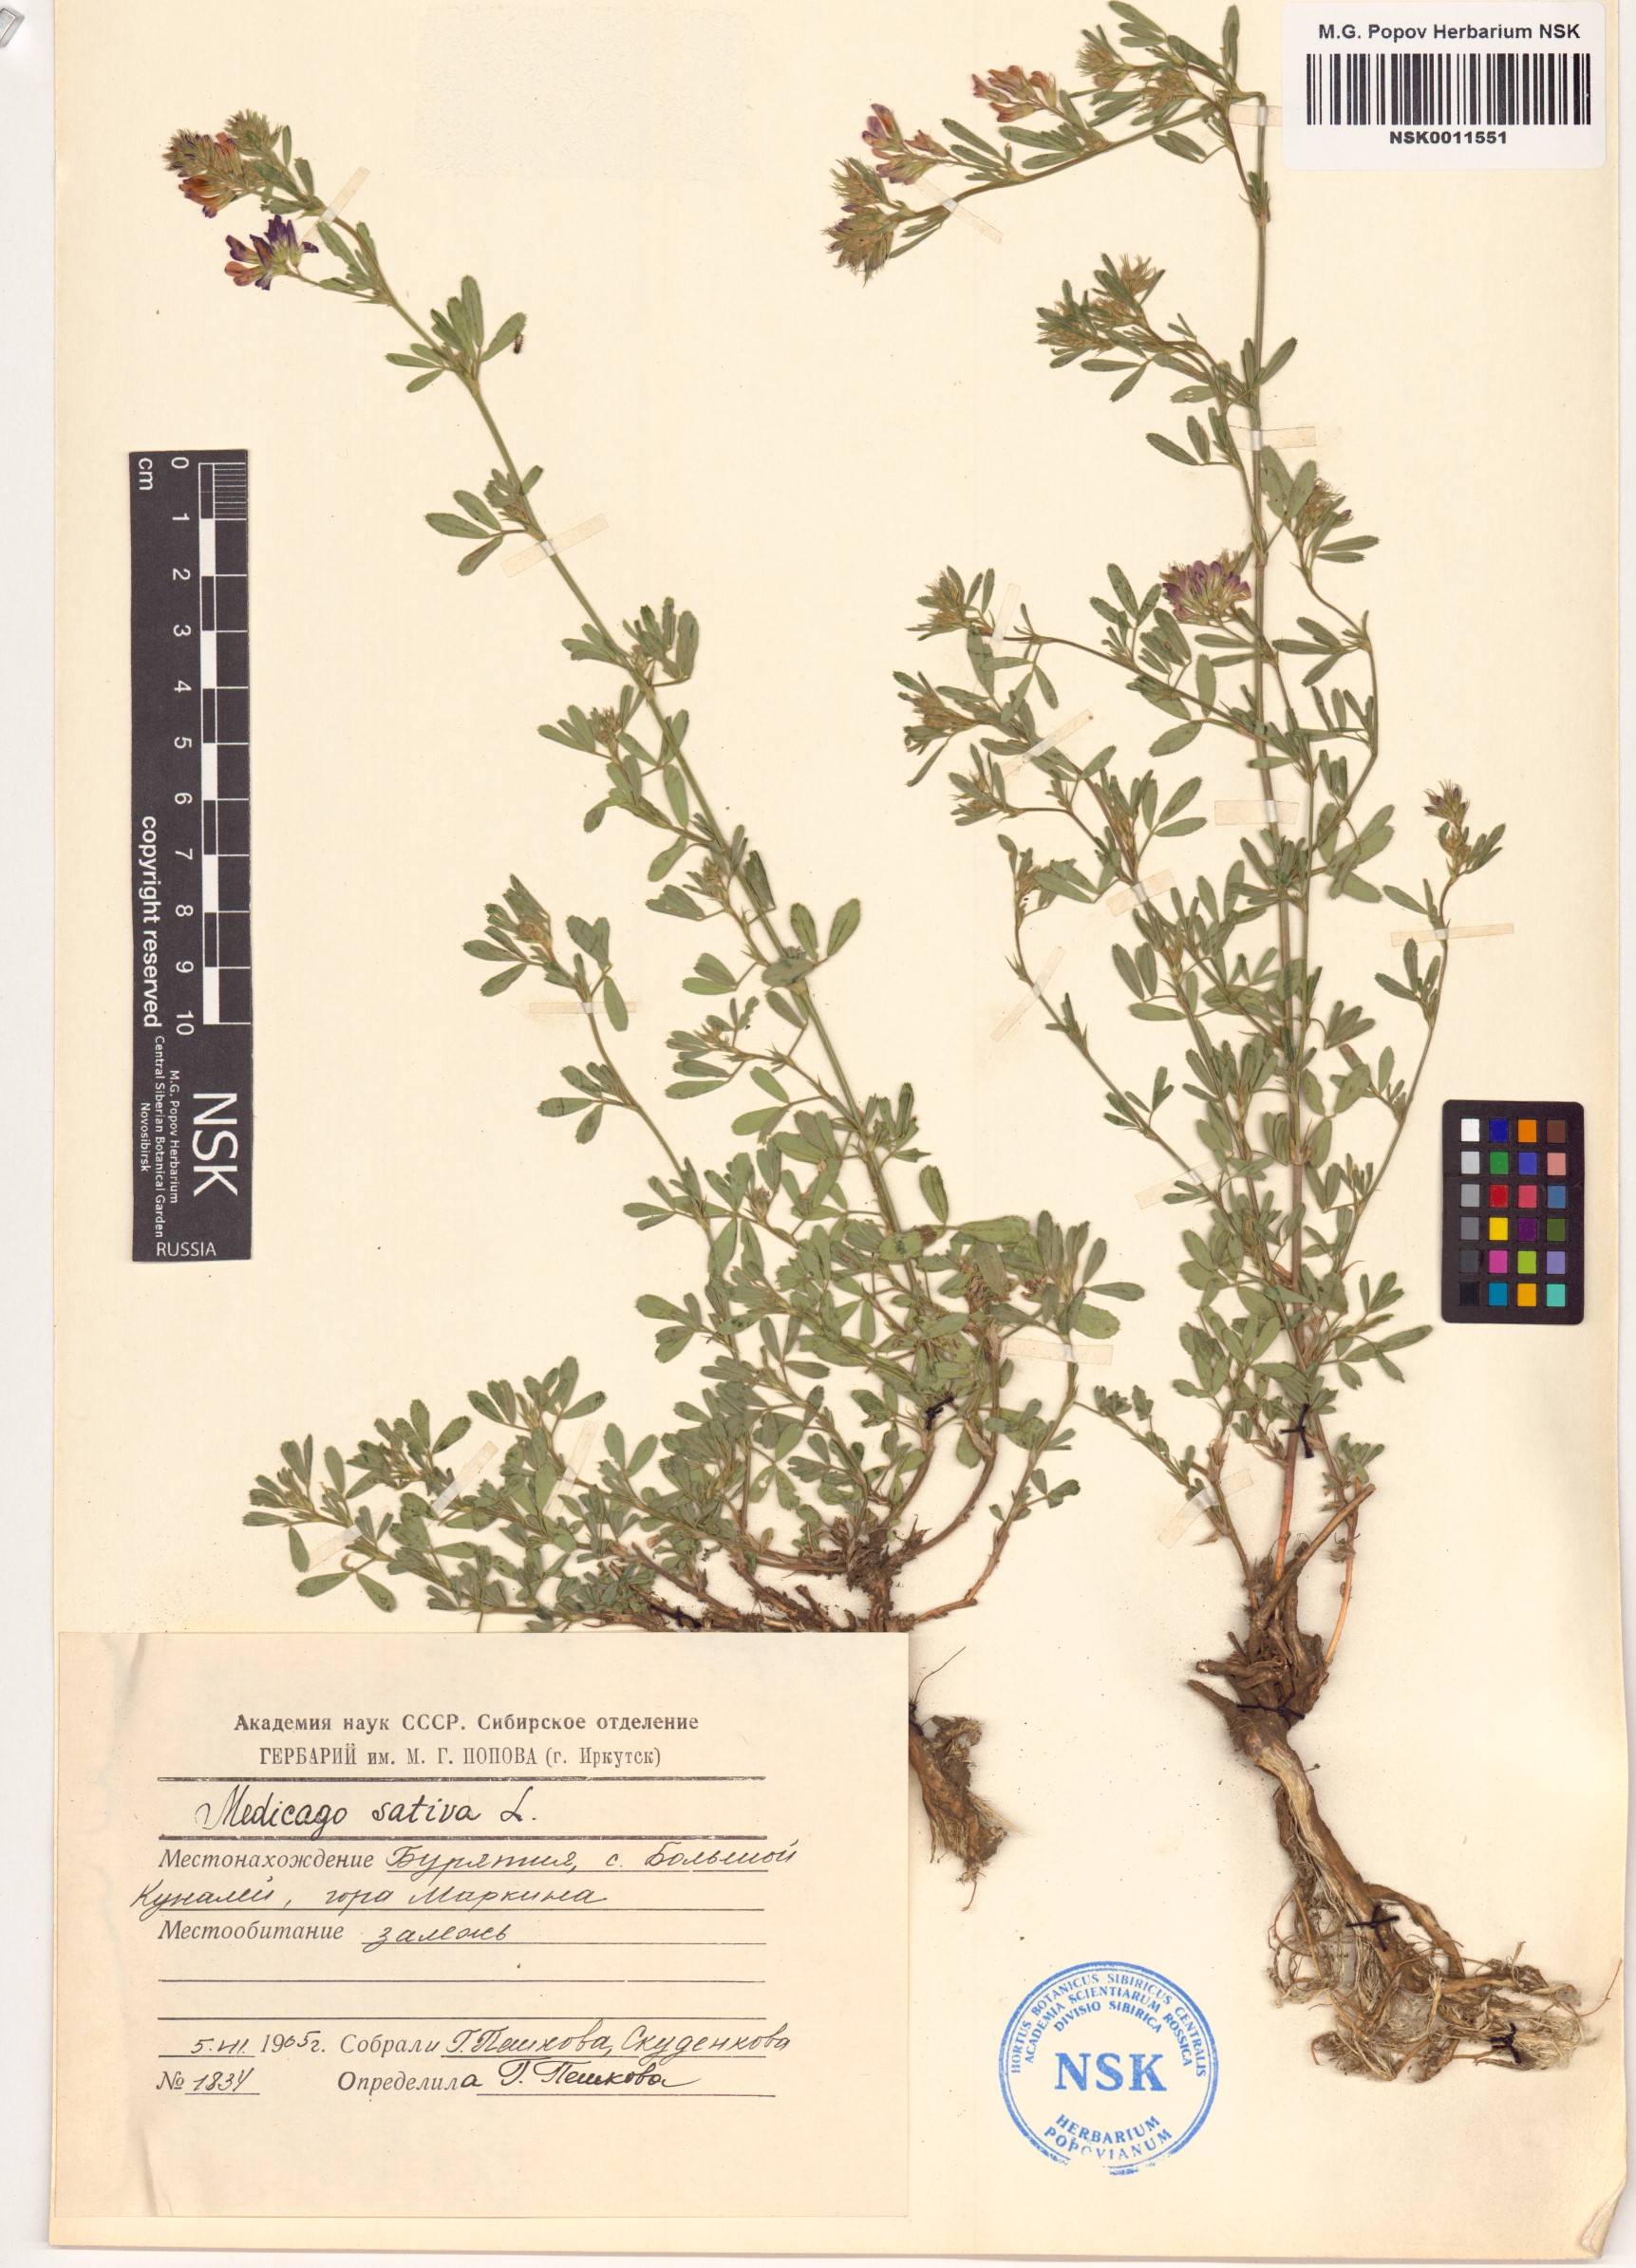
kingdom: Plantae
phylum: Tracheophyta
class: Magnoliopsida
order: Fabales
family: Fabaceae
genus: Medicago
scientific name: Medicago sativa
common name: Alfalfa
